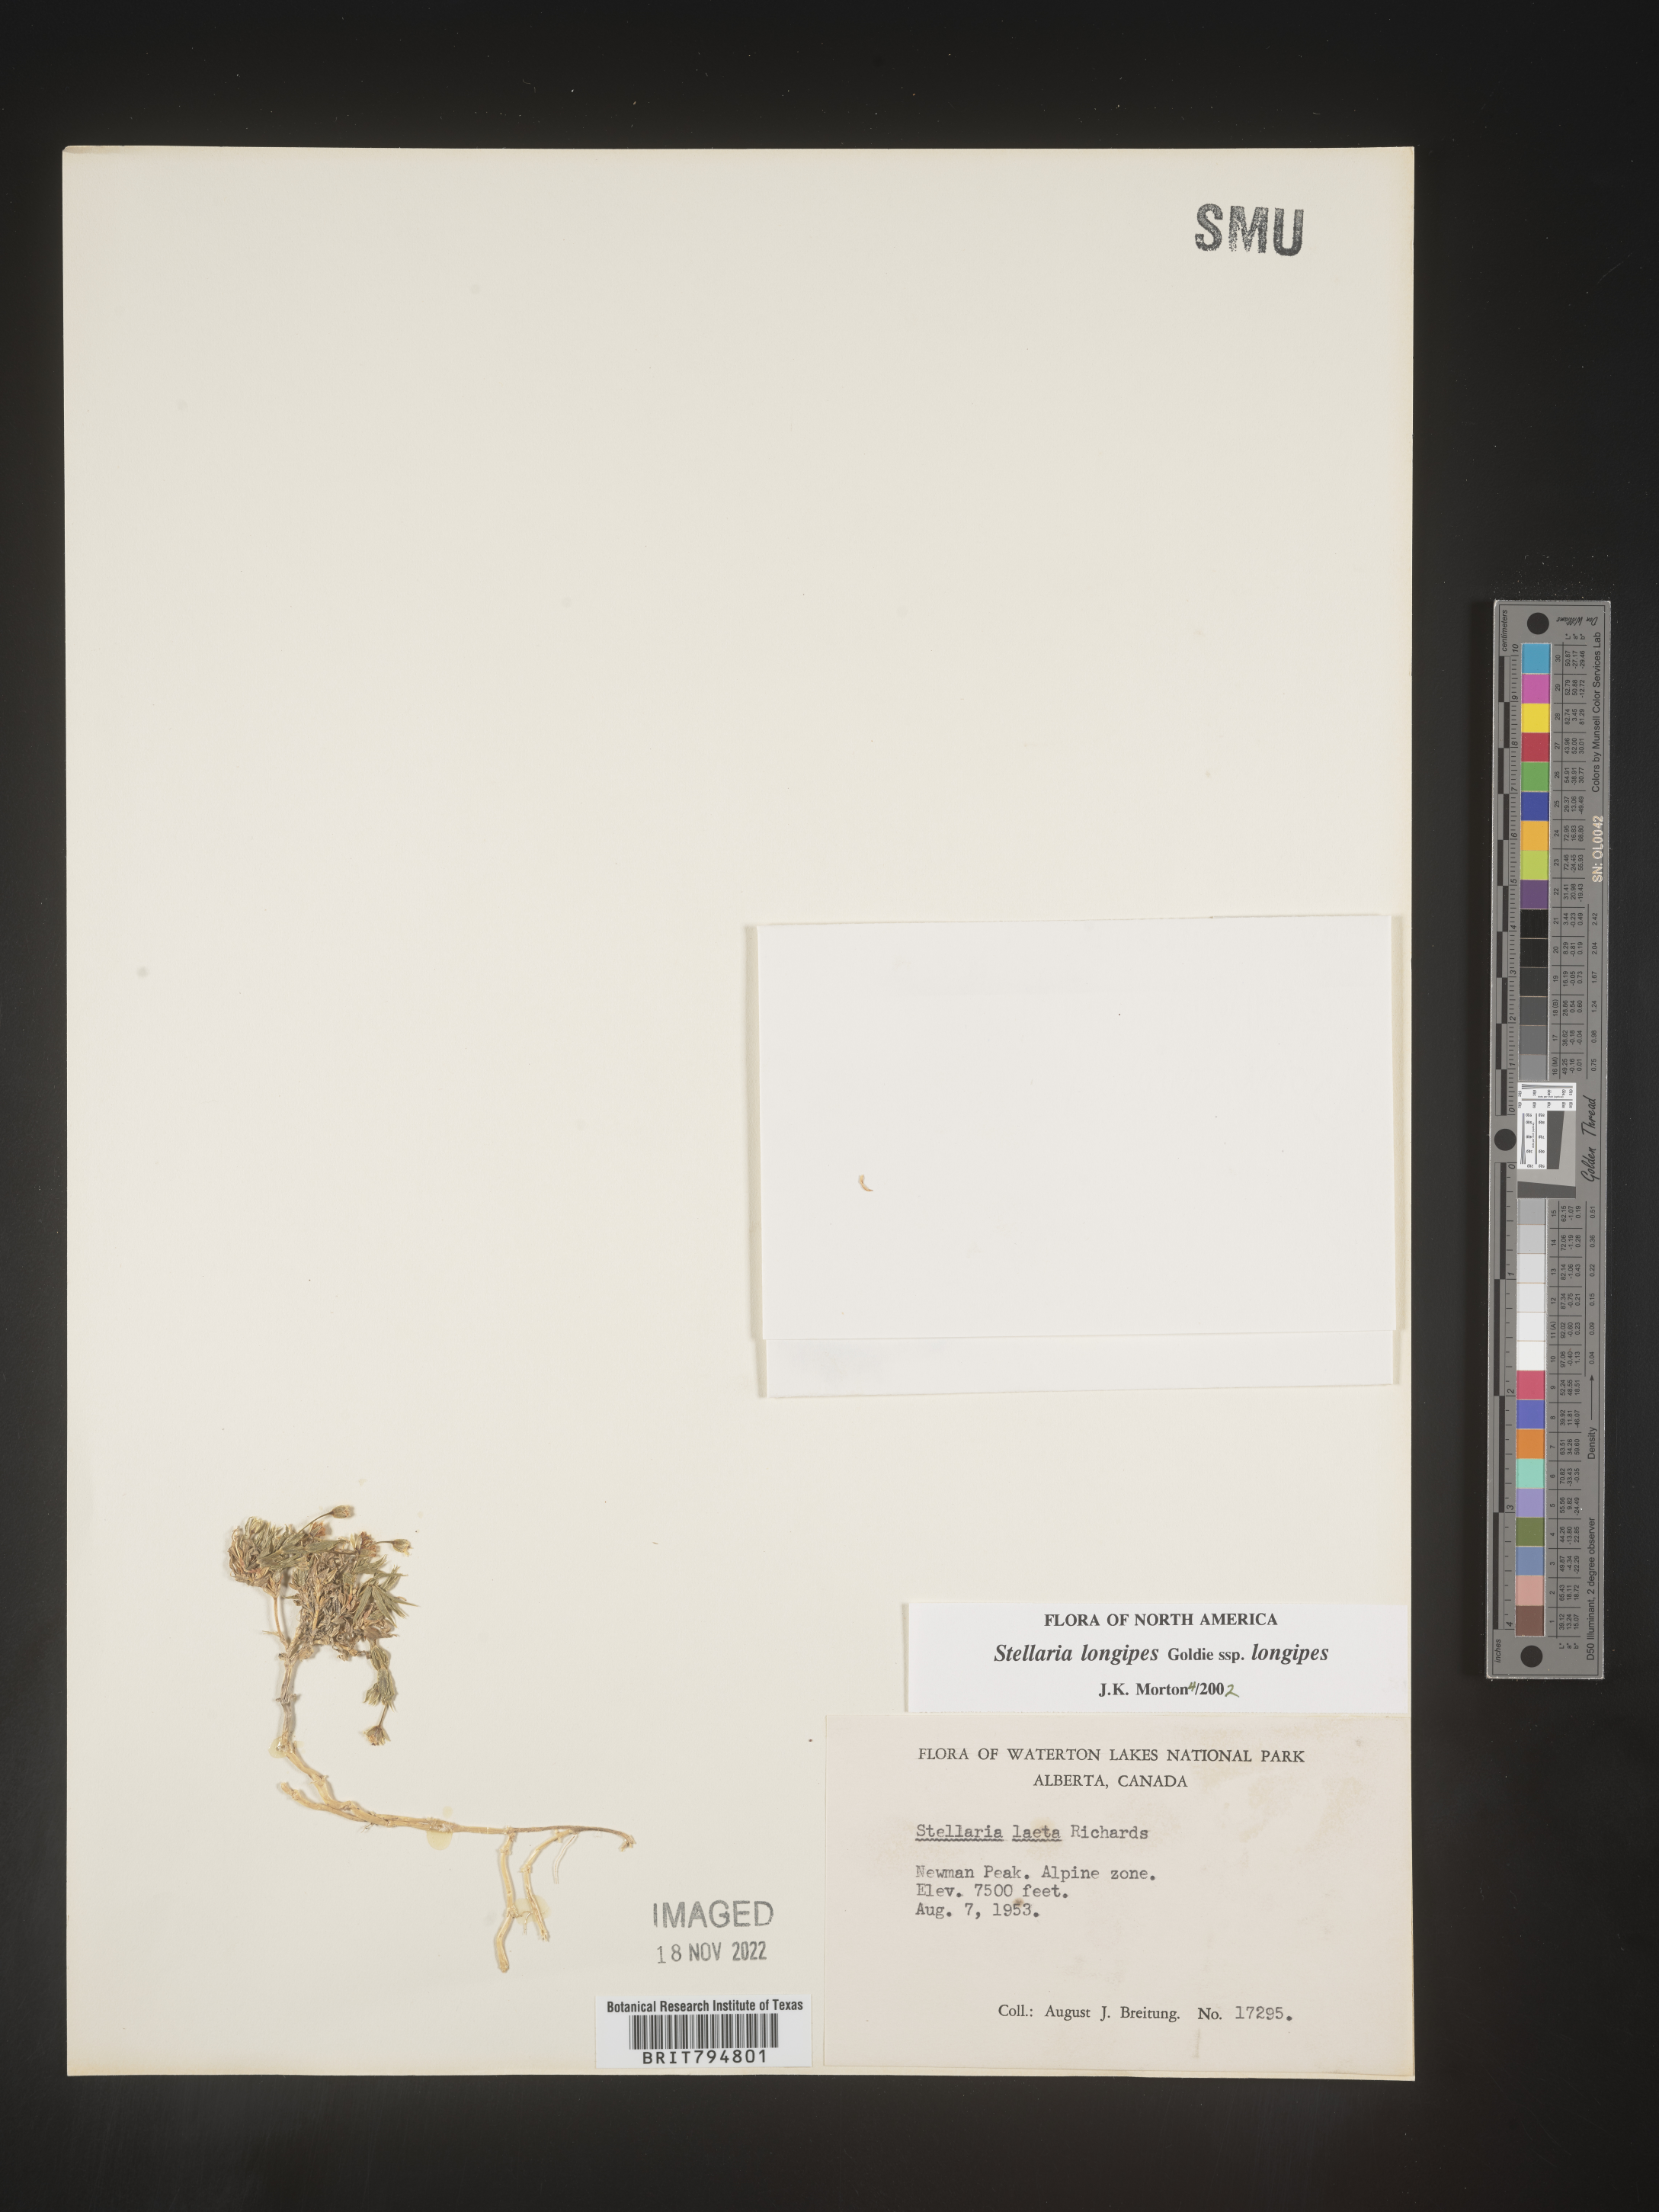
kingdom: Plantae
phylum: Tracheophyta
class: Magnoliopsida
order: Caryophyllales
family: Caryophyllaceae
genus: Stellaria
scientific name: Stellaria longipes
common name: Goldie's starwort
